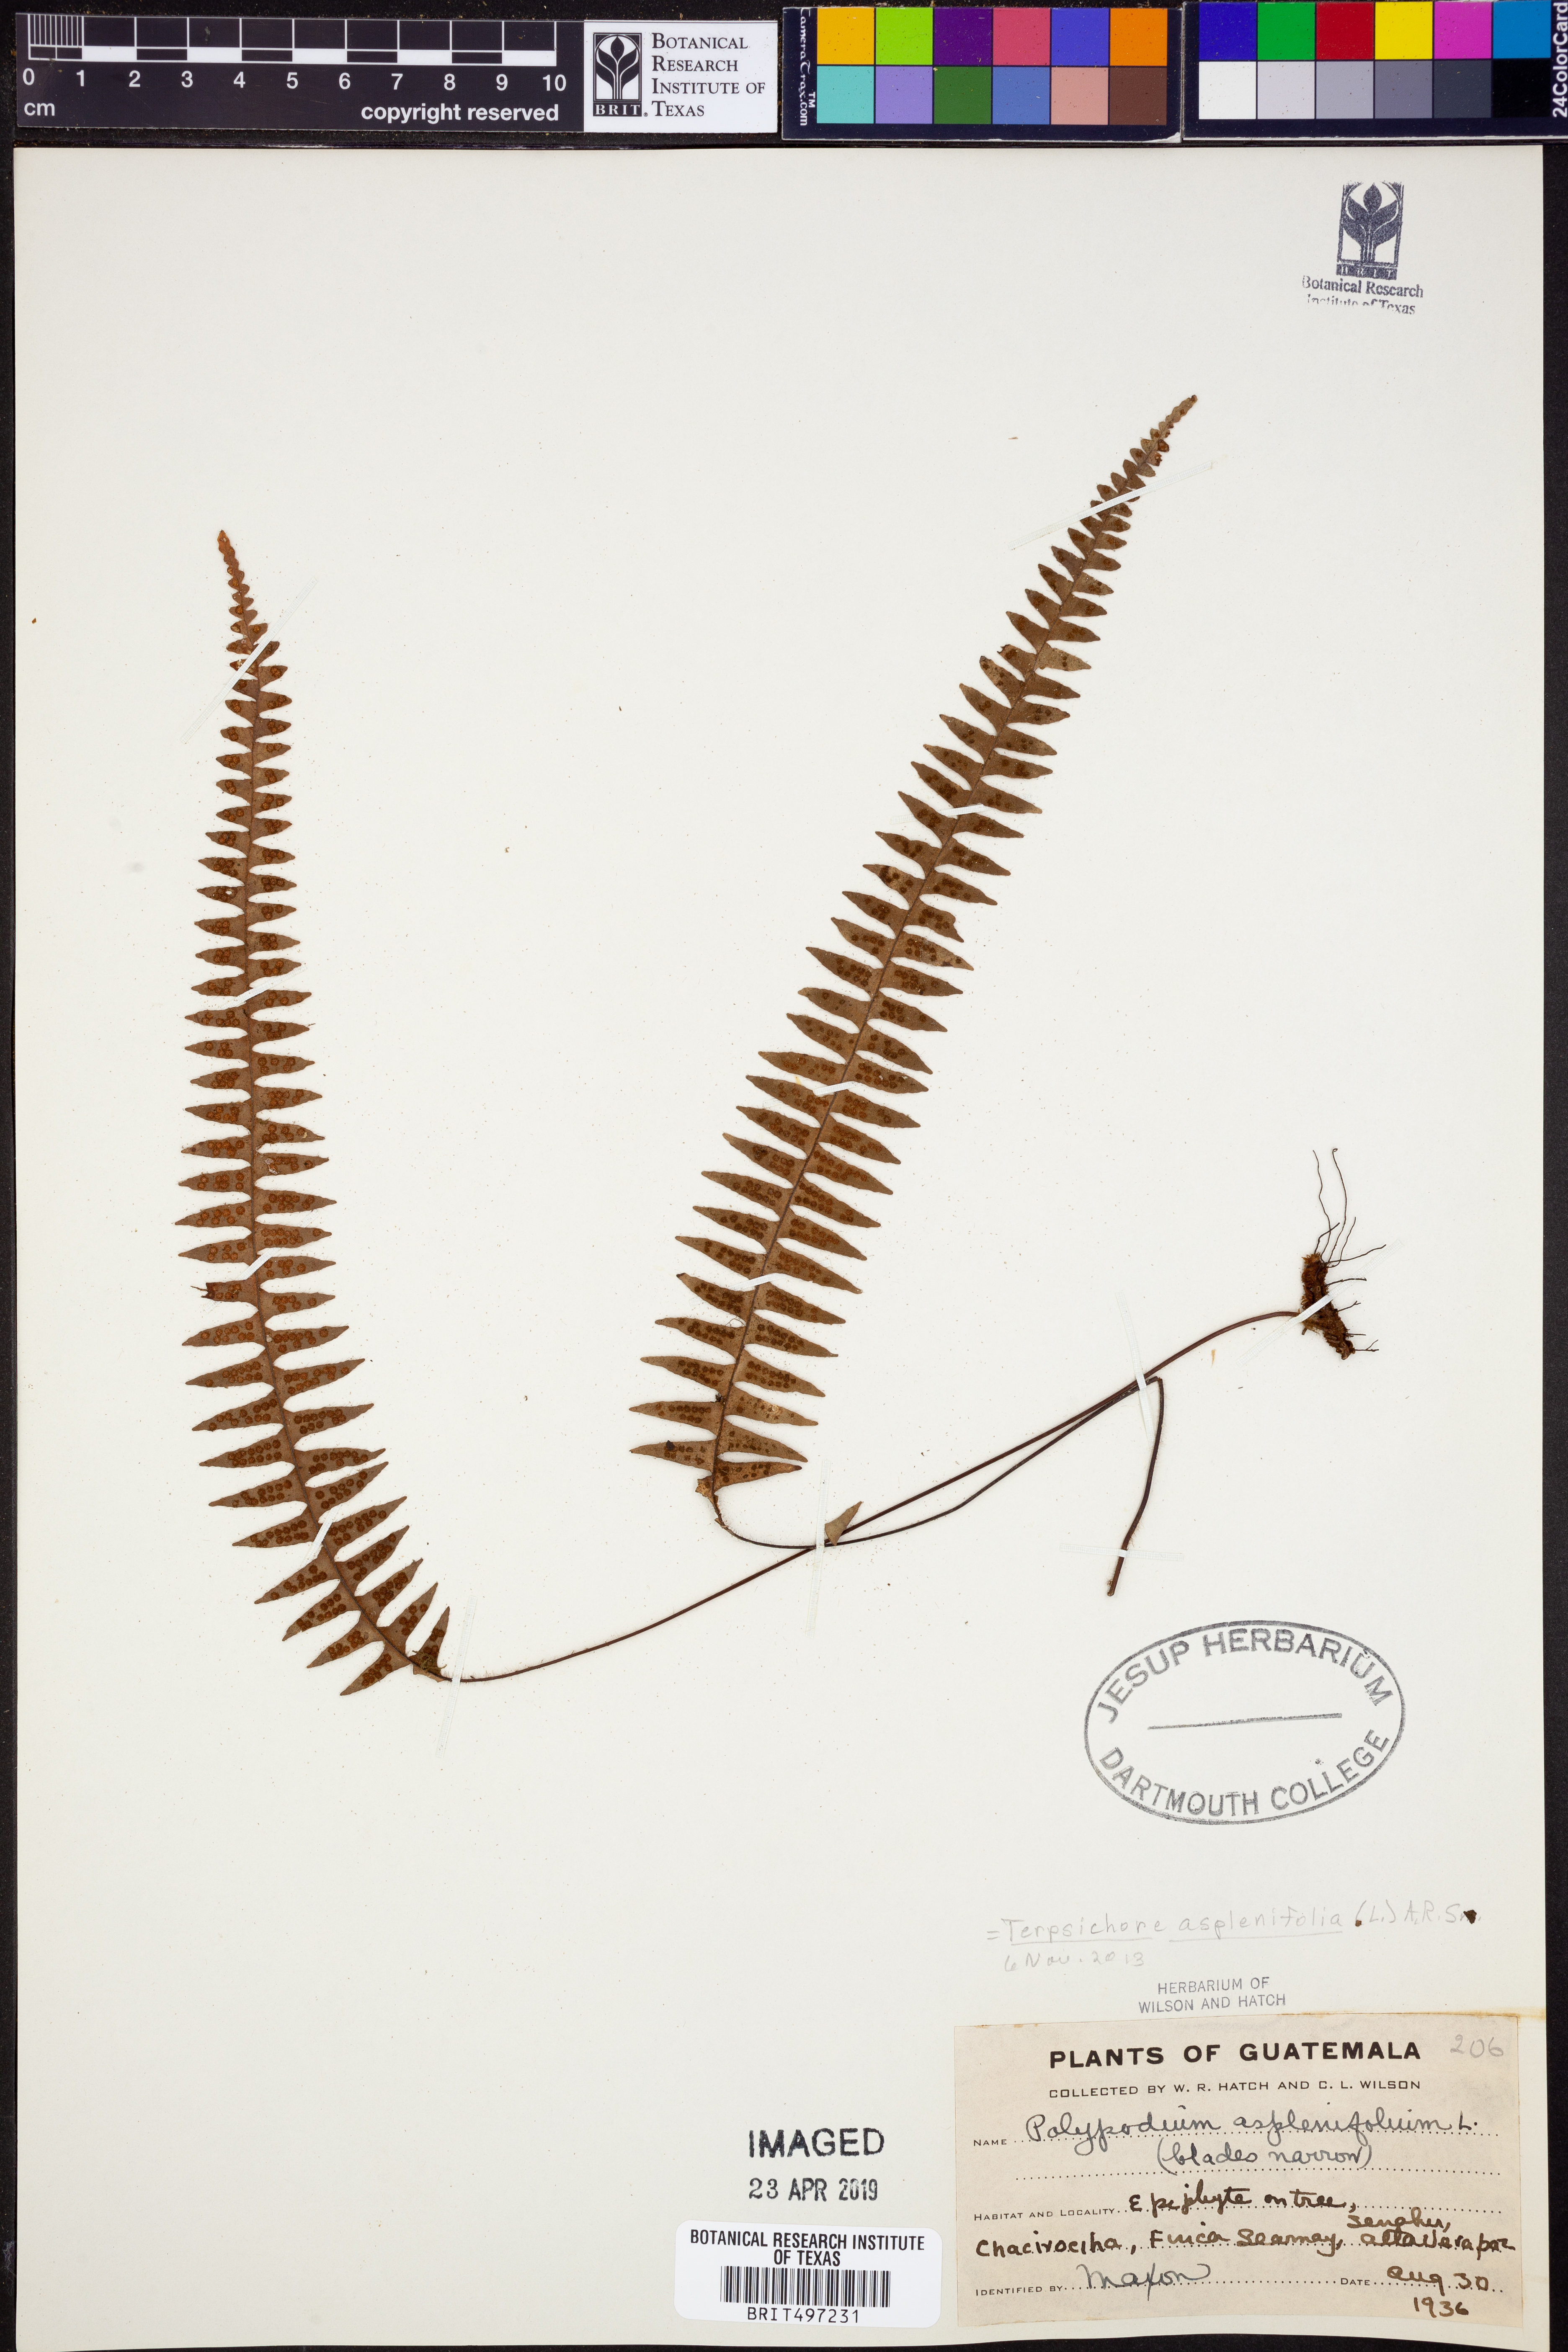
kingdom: Plantae
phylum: Tracheophyta
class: Polypodiopsida
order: Polypodiales
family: Polypodiaceae
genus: Terpsichore
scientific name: Terpsichore asplenifolia
